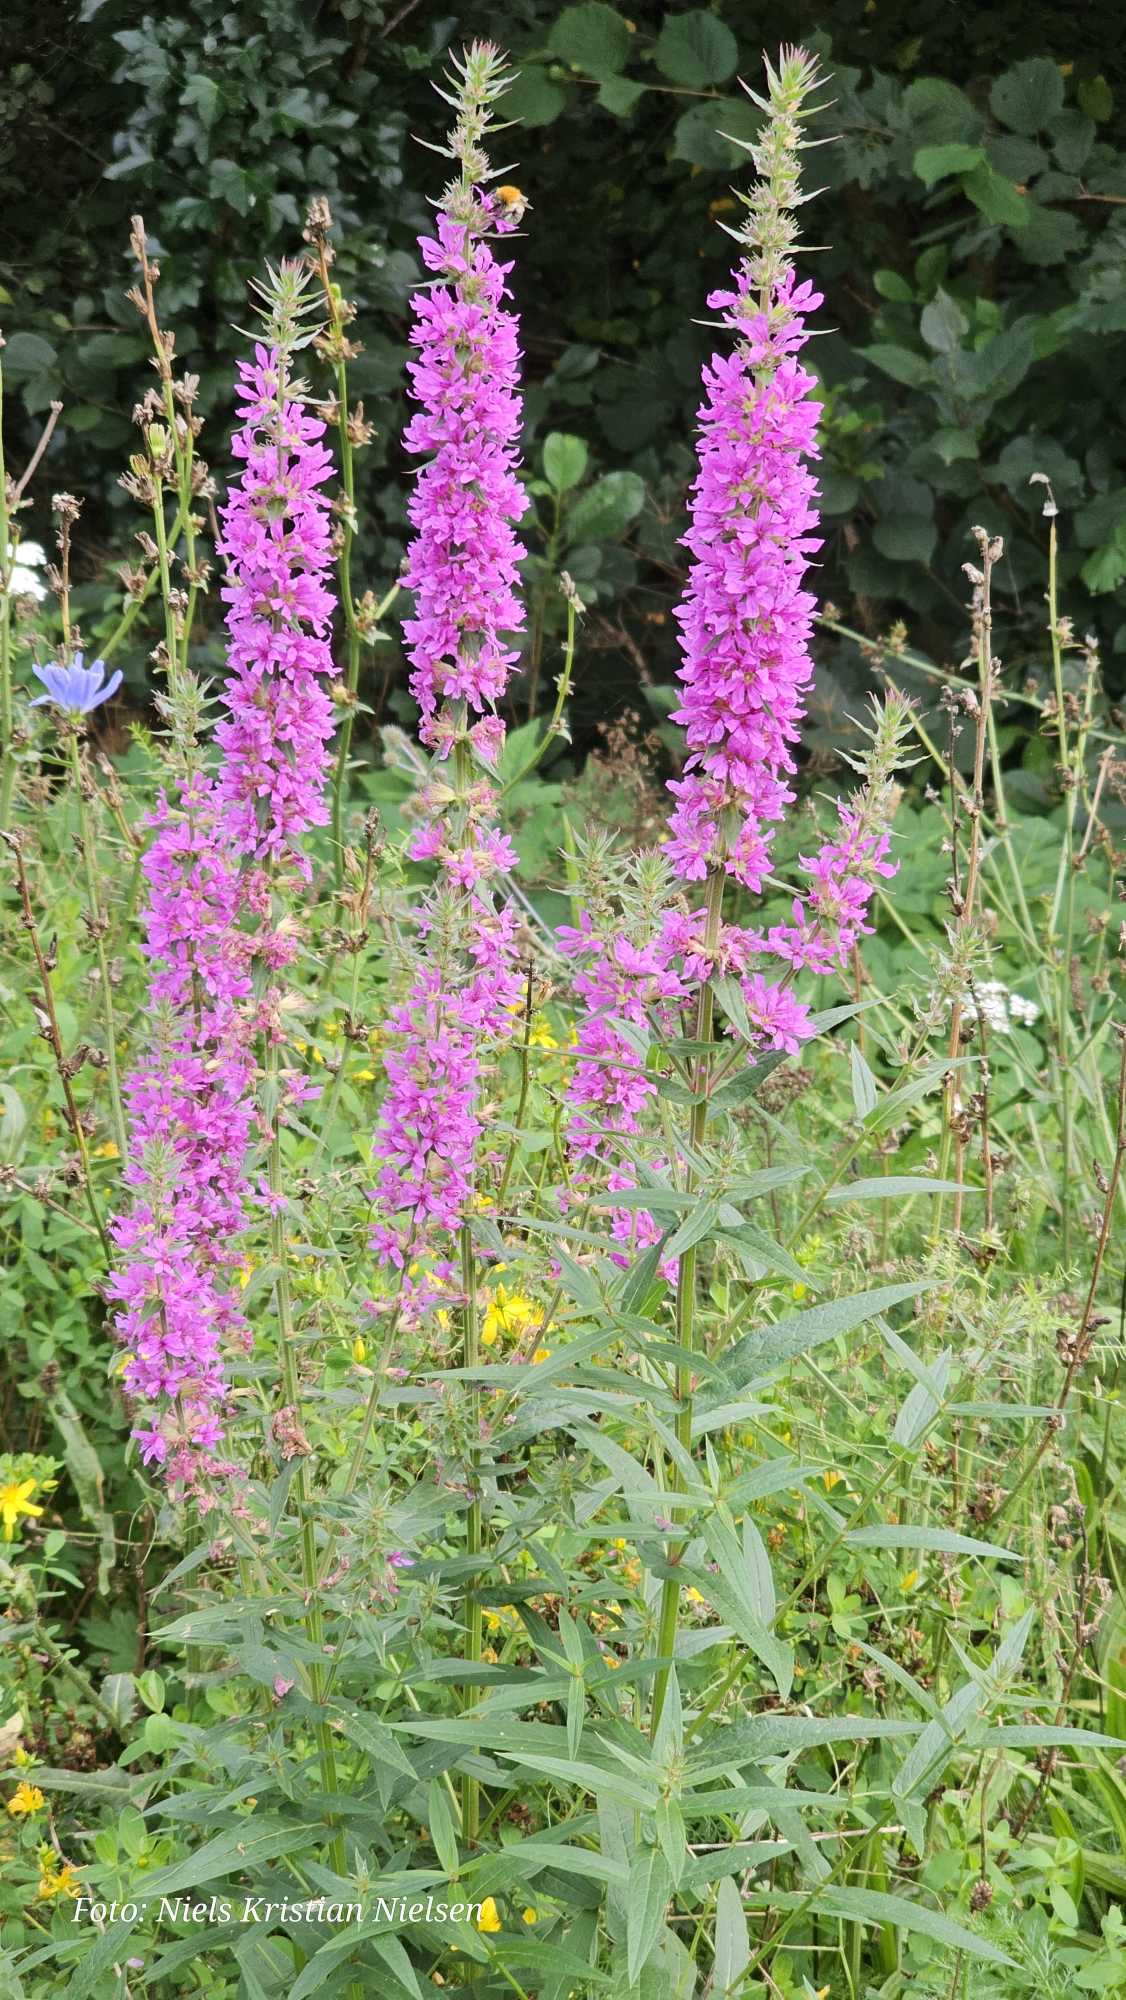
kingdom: Plantae
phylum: Tracheophyta
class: Magnoliopsida
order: Myrtales
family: Lythraceae
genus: Lythrum
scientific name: Lythrum salicaria
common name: Kattehale
